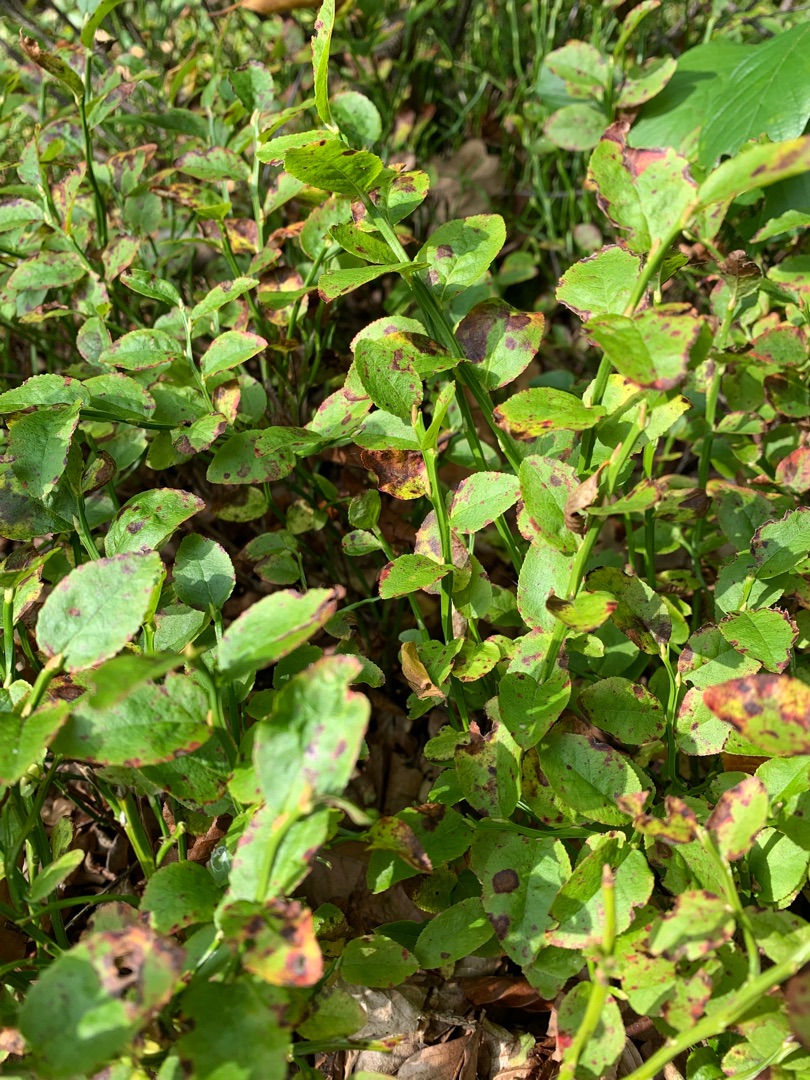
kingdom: Plantae
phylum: Tracheophyta
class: Magnoliopsida
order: Ericales
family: Ericaceae
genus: Vaccinium
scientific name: Vaccinium myrtillus
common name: Blåbær
